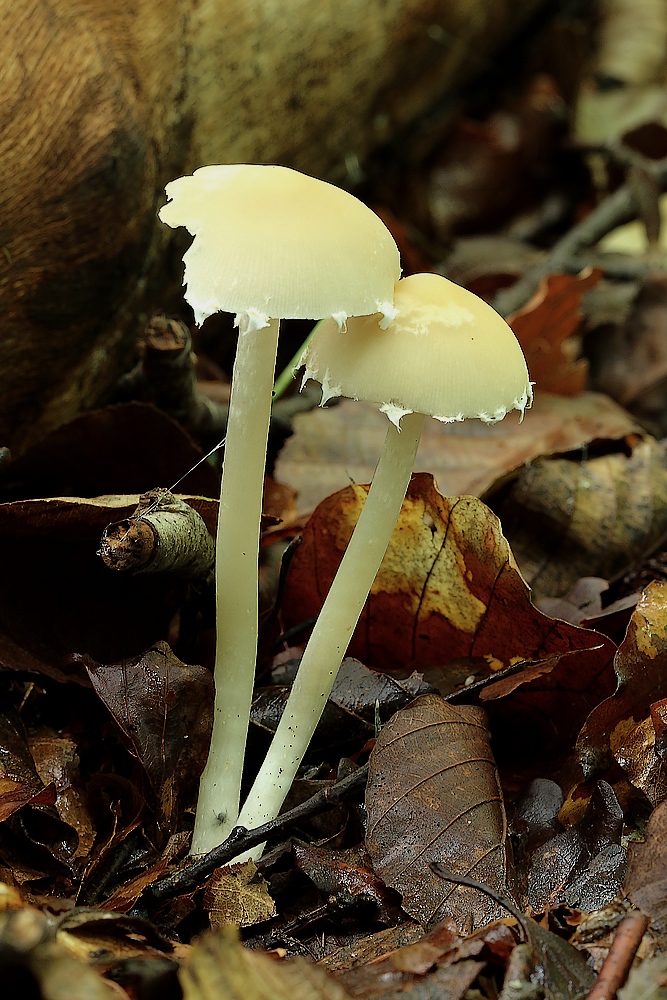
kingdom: Fungi
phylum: Basidiomycota
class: Agaricomycetes
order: Agaricales
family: Psathyrellaceae
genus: Candolleomyces
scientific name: Candolleomyces candolleanus
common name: Candolles mørkhat
